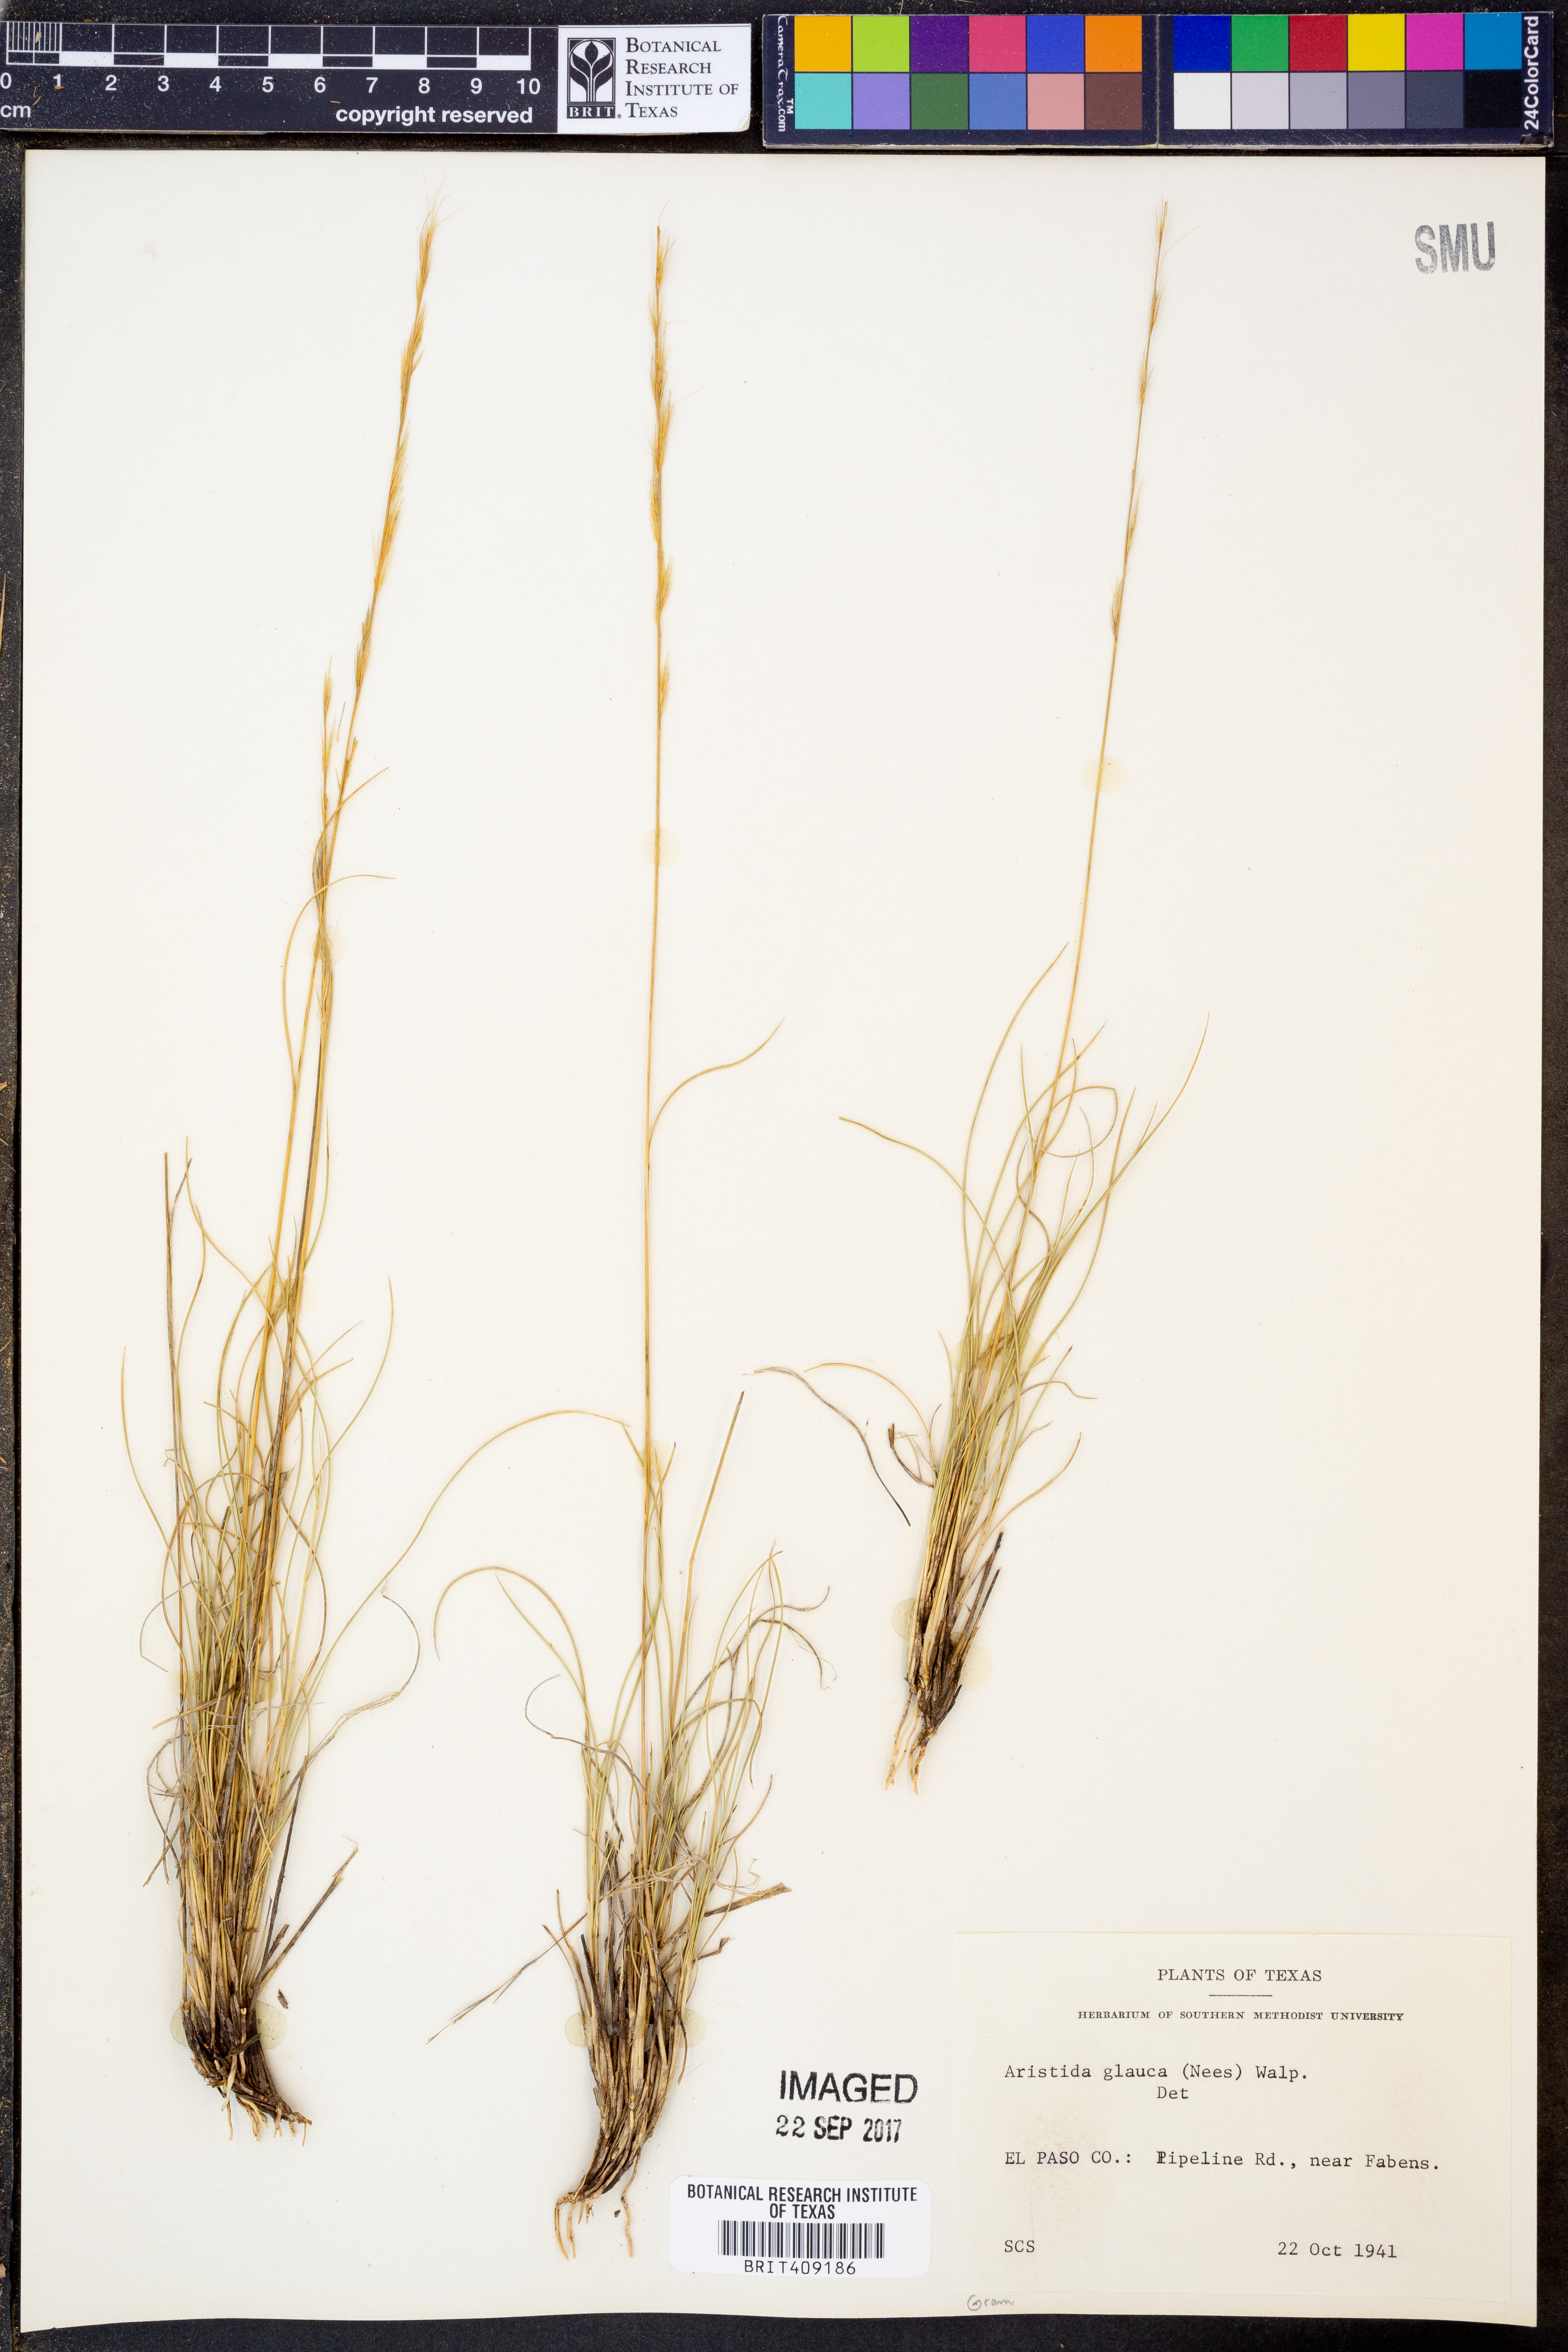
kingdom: Plantae
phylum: Tracheophyta
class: Liliopsida
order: Poales
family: Poaceae
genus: Aristida
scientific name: Aristida glauca
